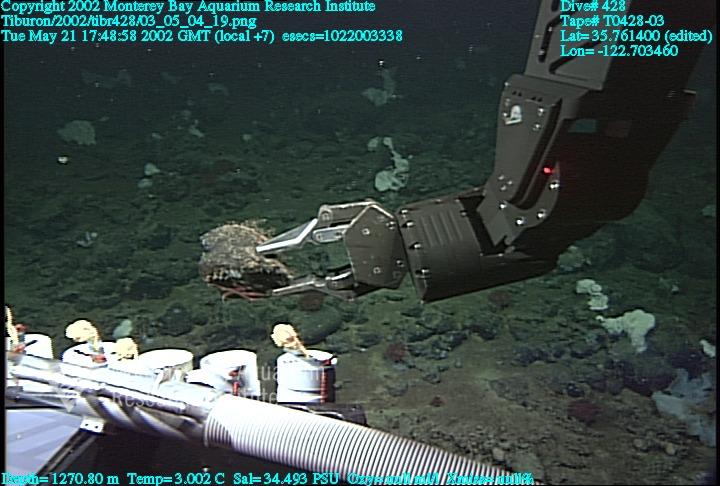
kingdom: Animalia
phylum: Porifera
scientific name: Porifera
